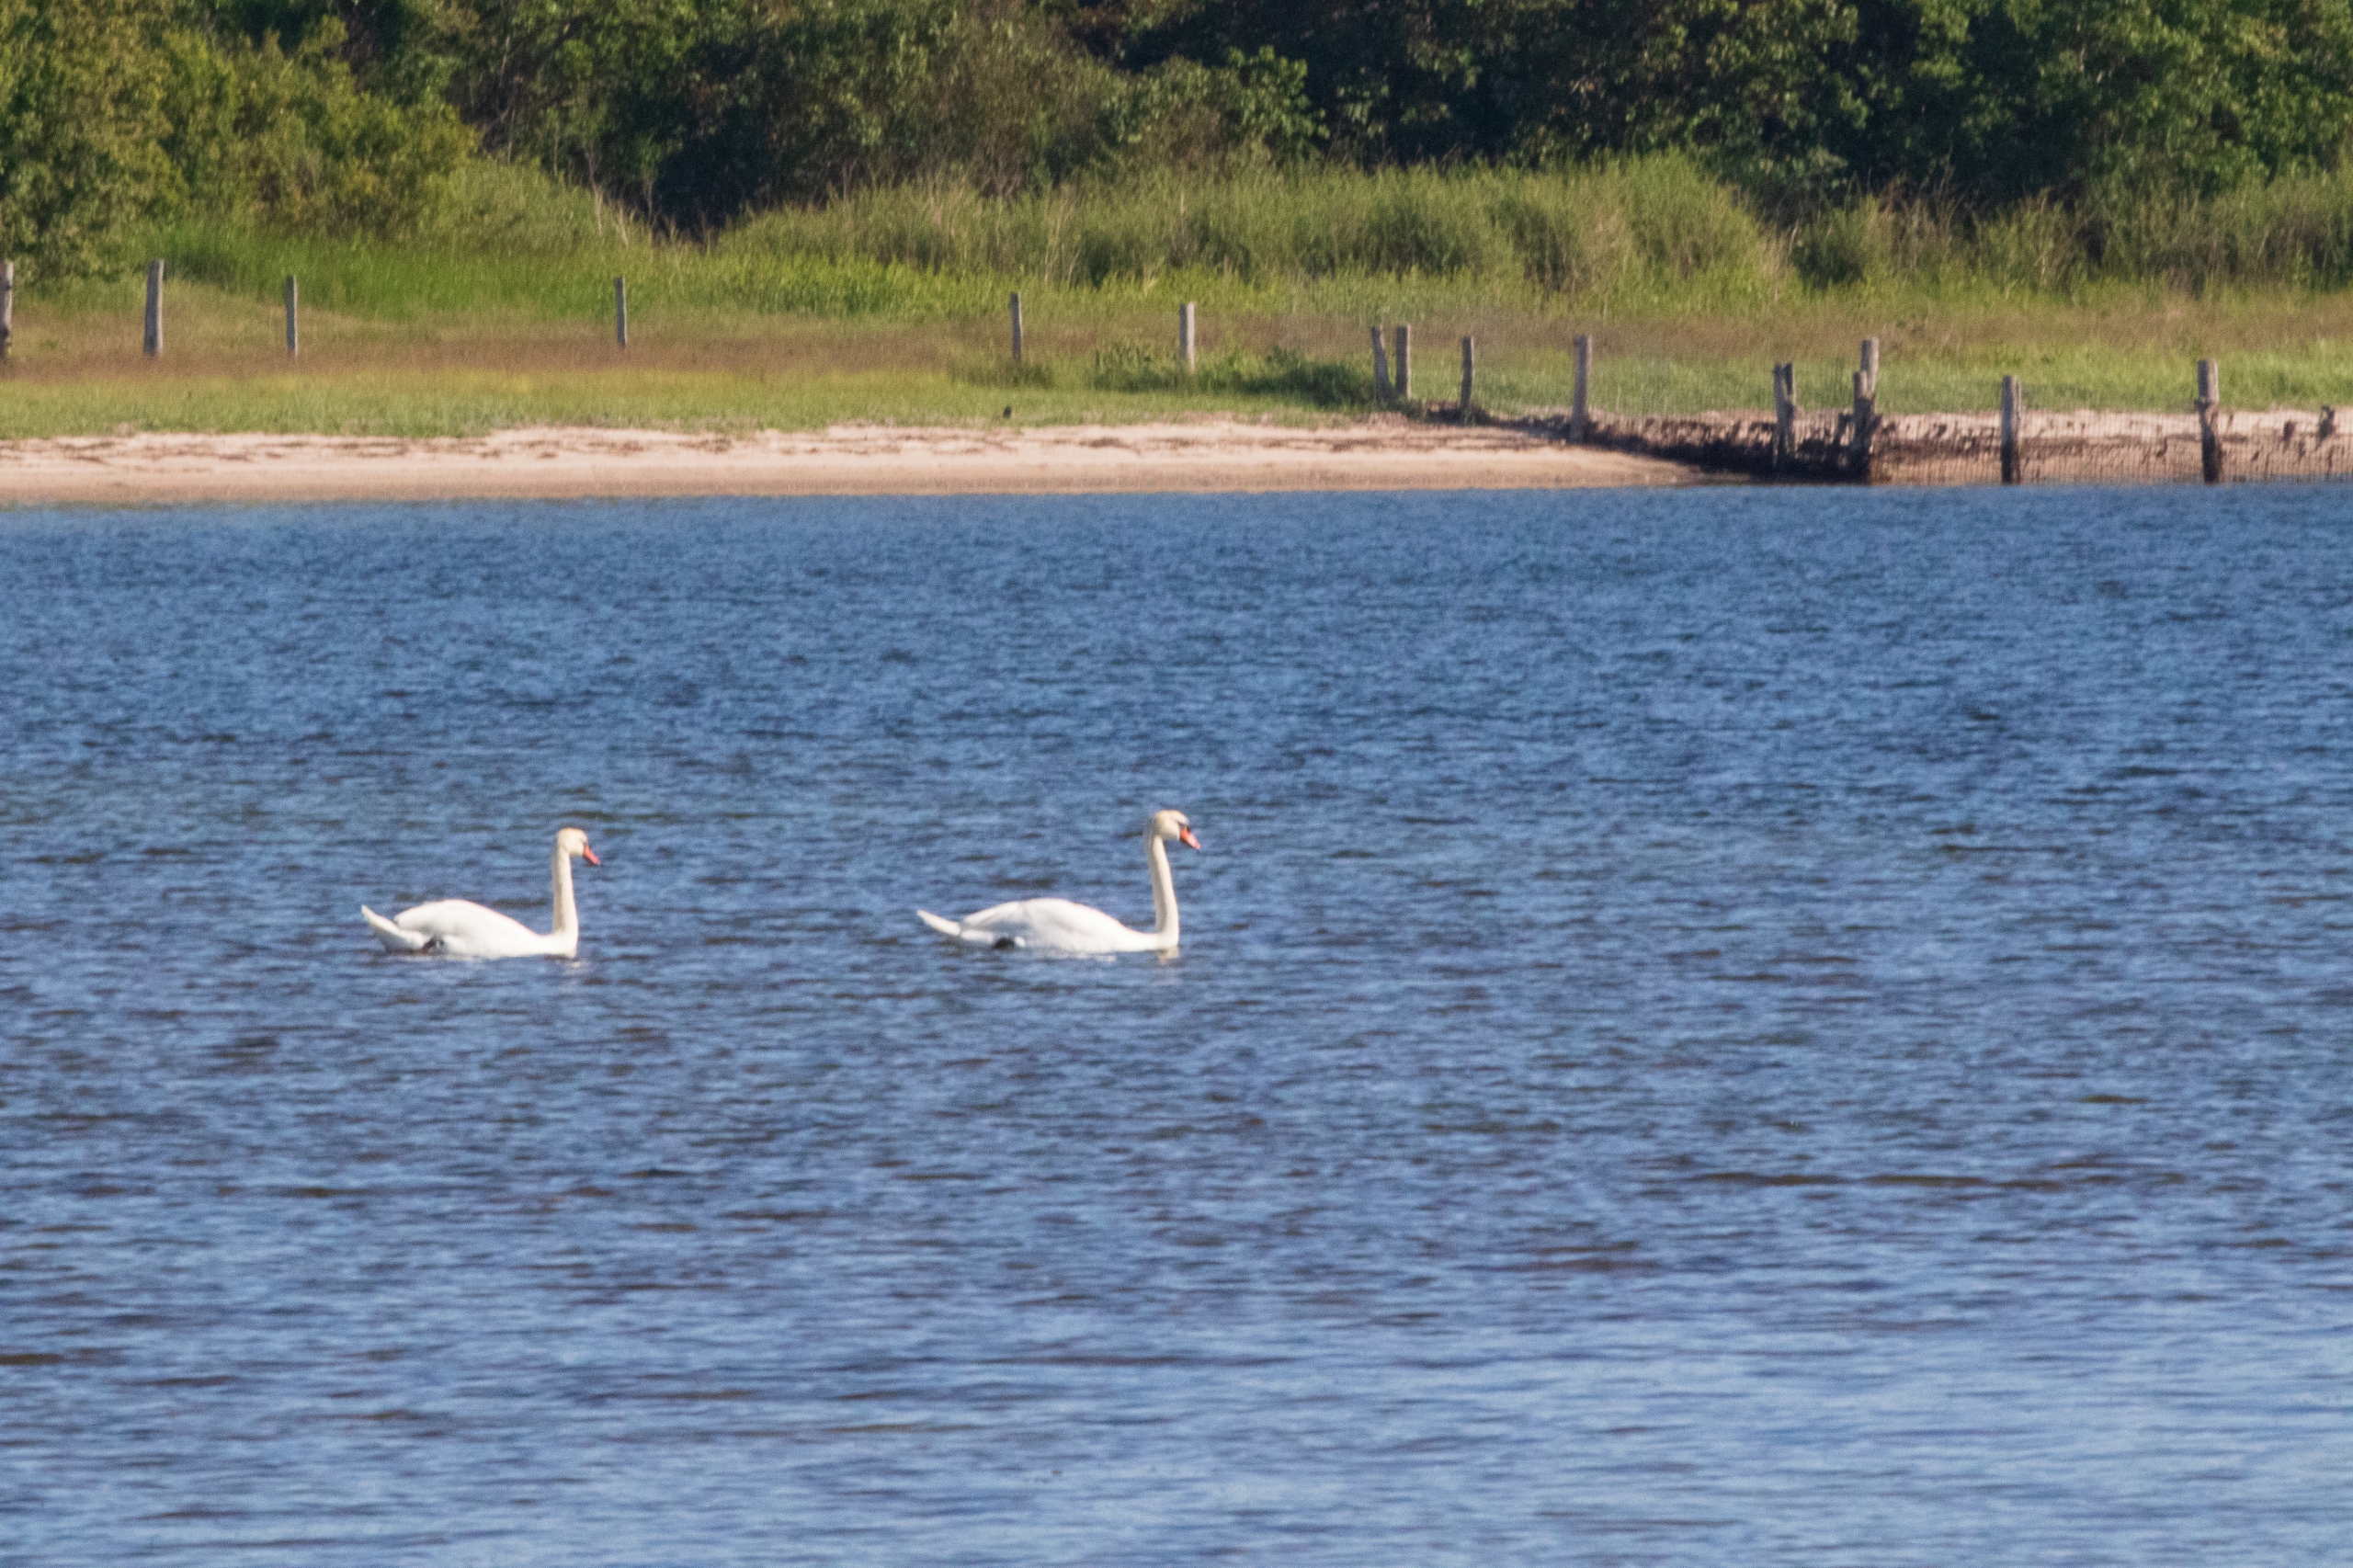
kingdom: Animalia
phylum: Chordata
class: Aves
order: Anseriformes
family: Anatidae
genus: Cygnus
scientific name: Cygnus olor
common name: Knopsvane
